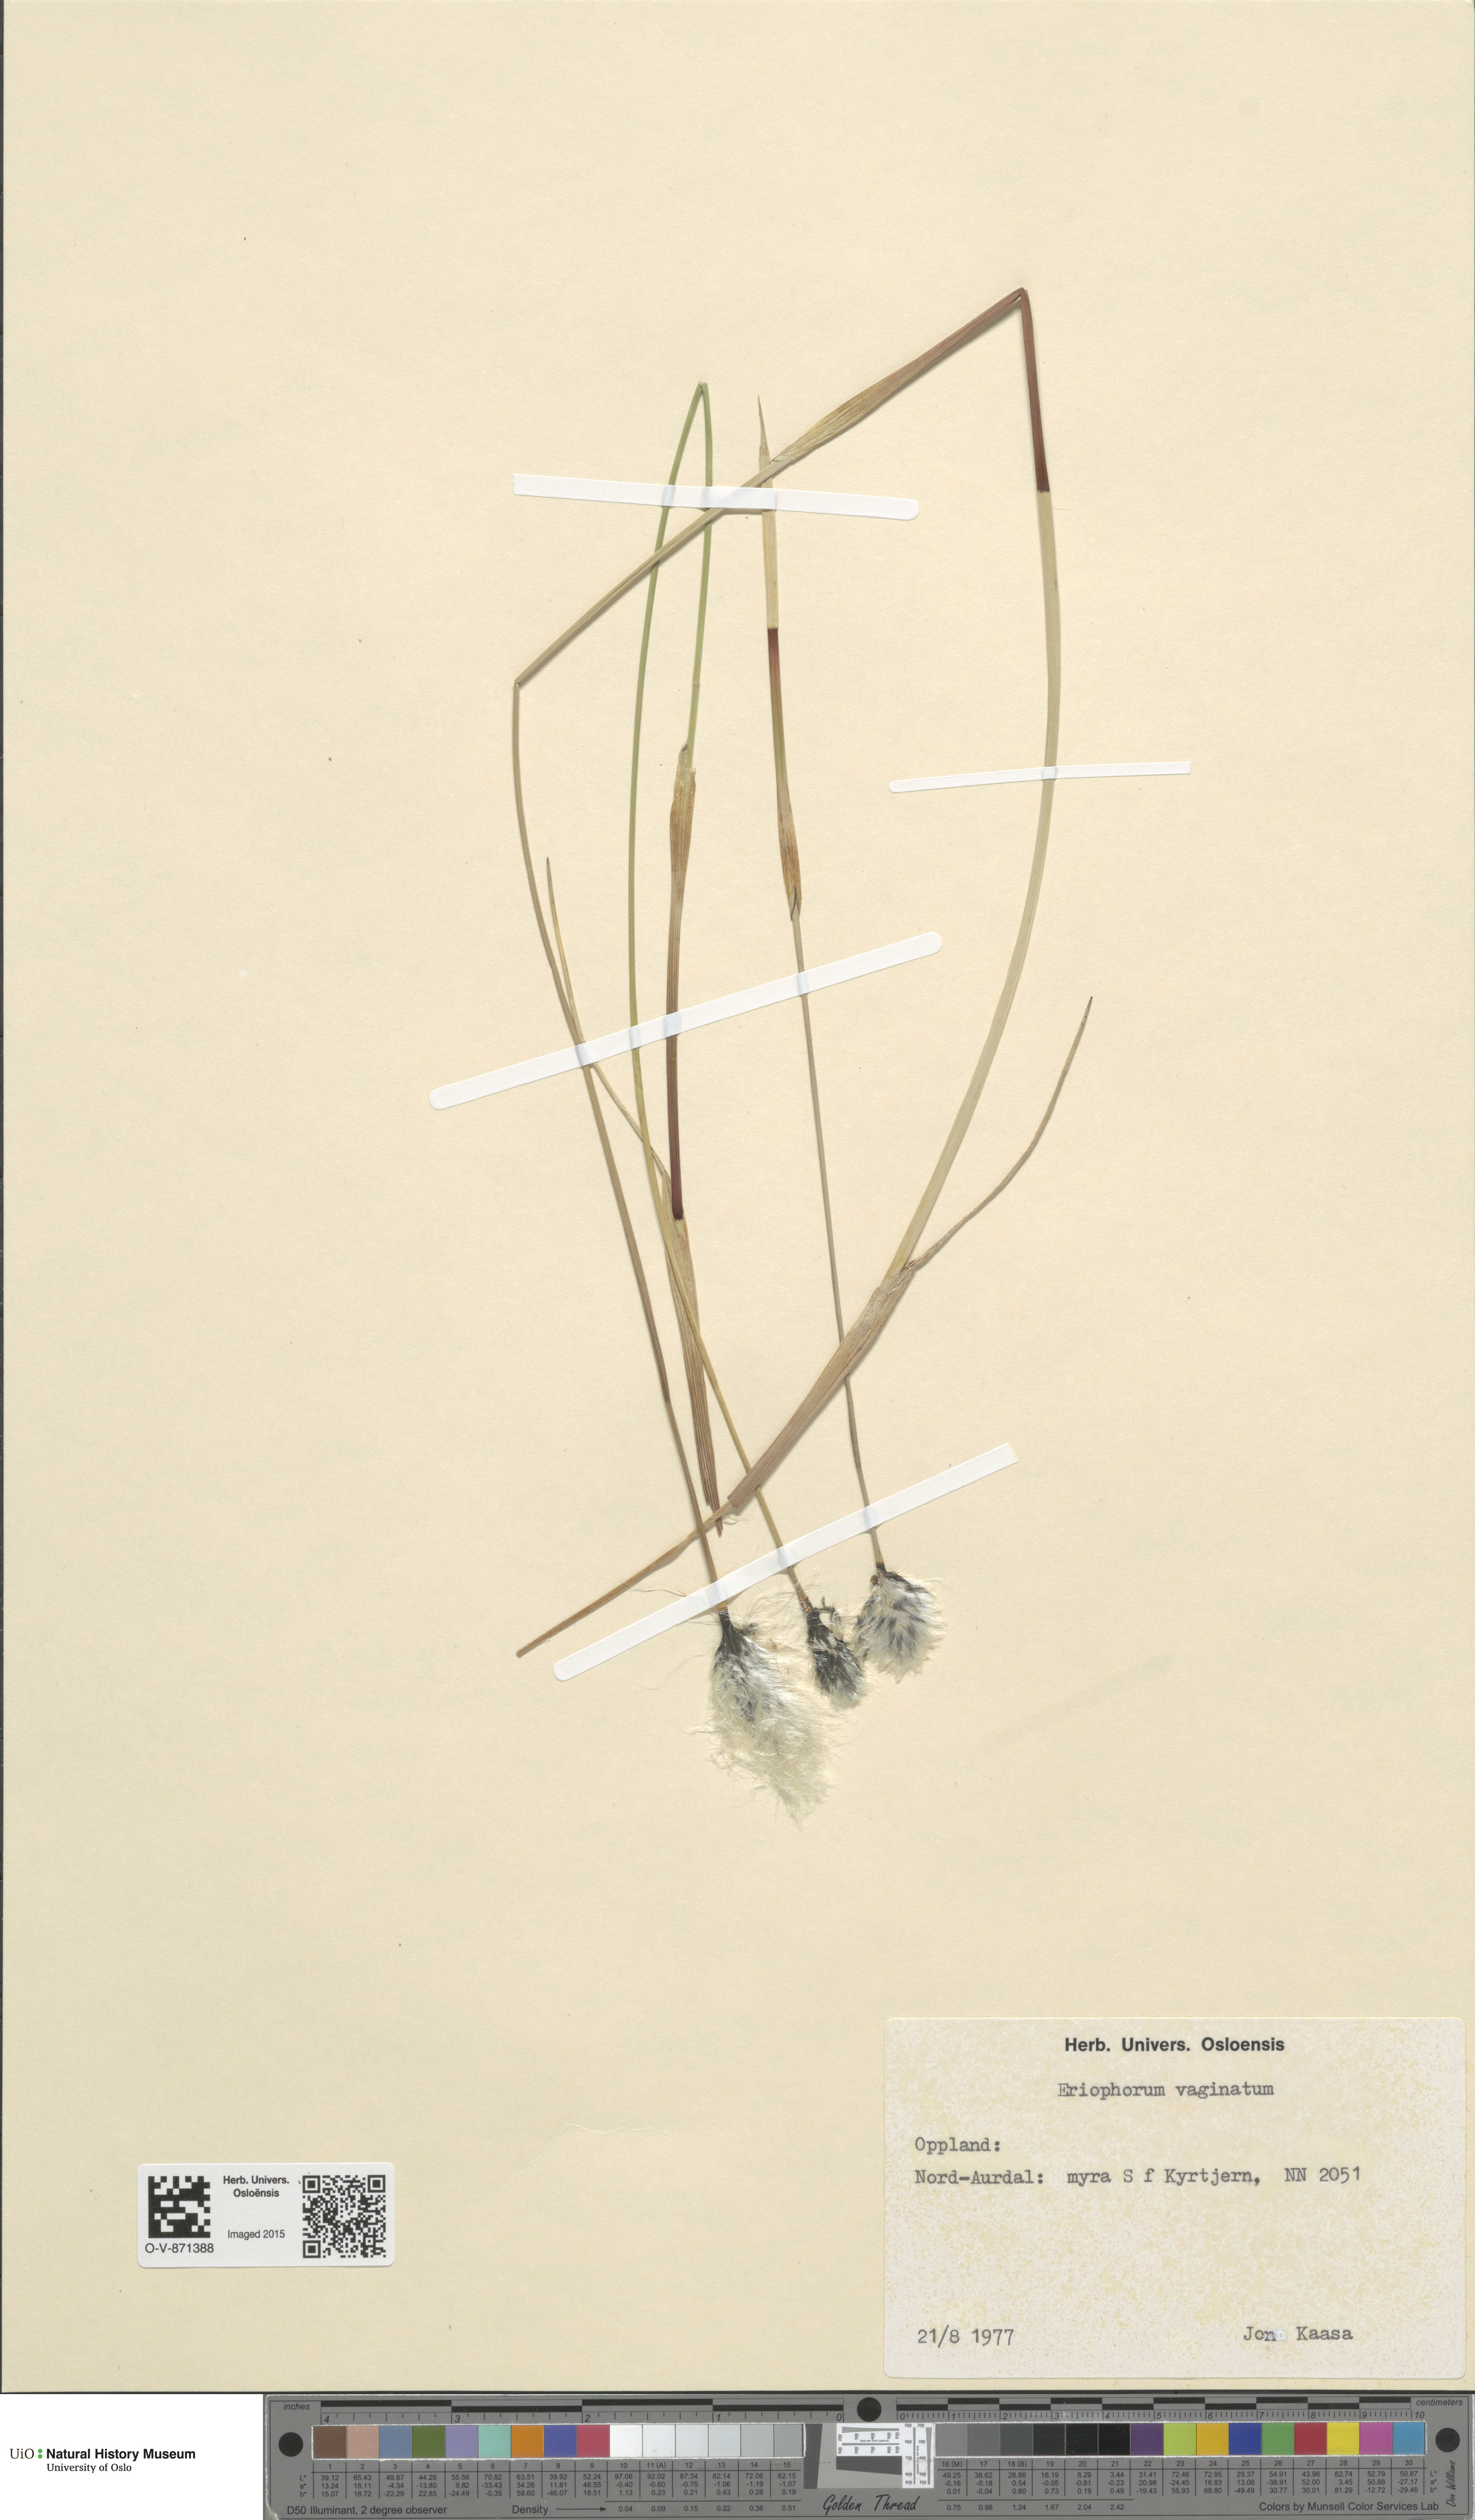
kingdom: Plantae
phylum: Tracheophyta
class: Liliopsida
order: Poales
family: Cyperaceae
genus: Eriophorum
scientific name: Eriophorum vaginatum
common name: Hare's-tail cottongrass
